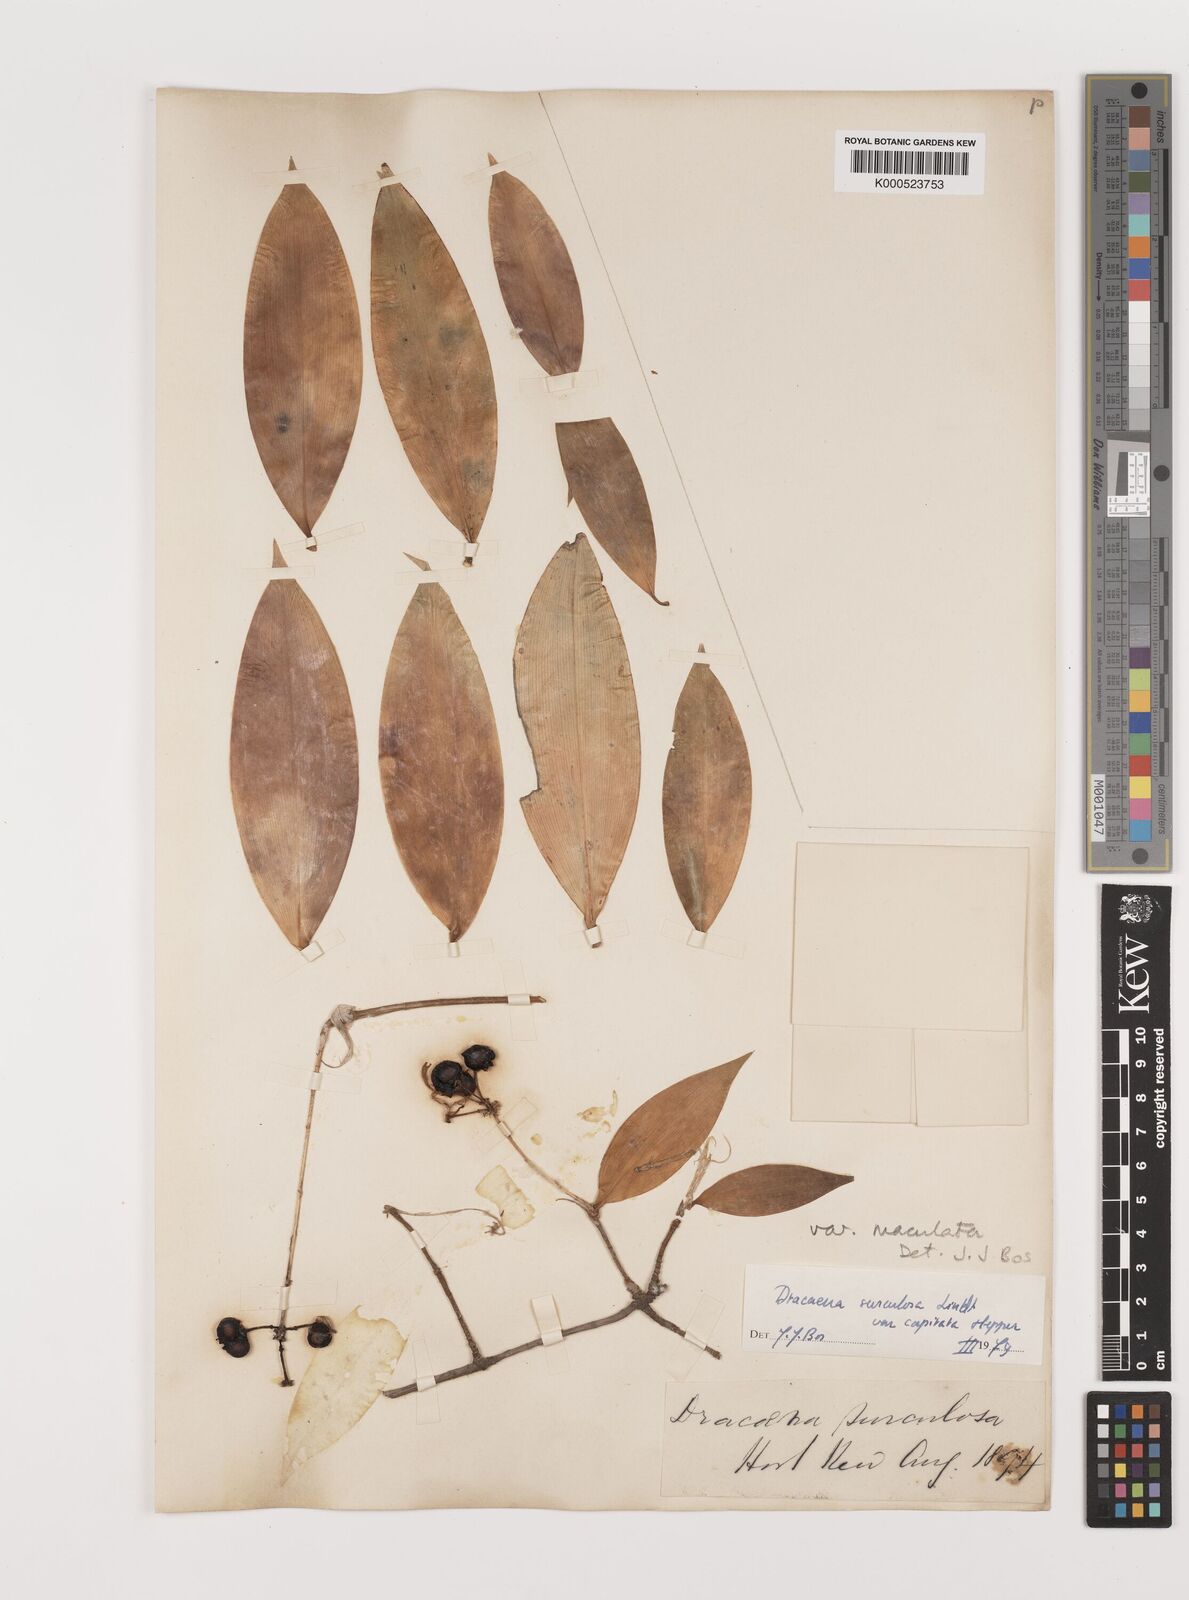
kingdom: Plantae
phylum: Tracheophyta
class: Liliopsida
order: Asparagales
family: Asparagaceae
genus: Dracaena
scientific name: Dracaena surculosa
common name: Spotted dracaena
